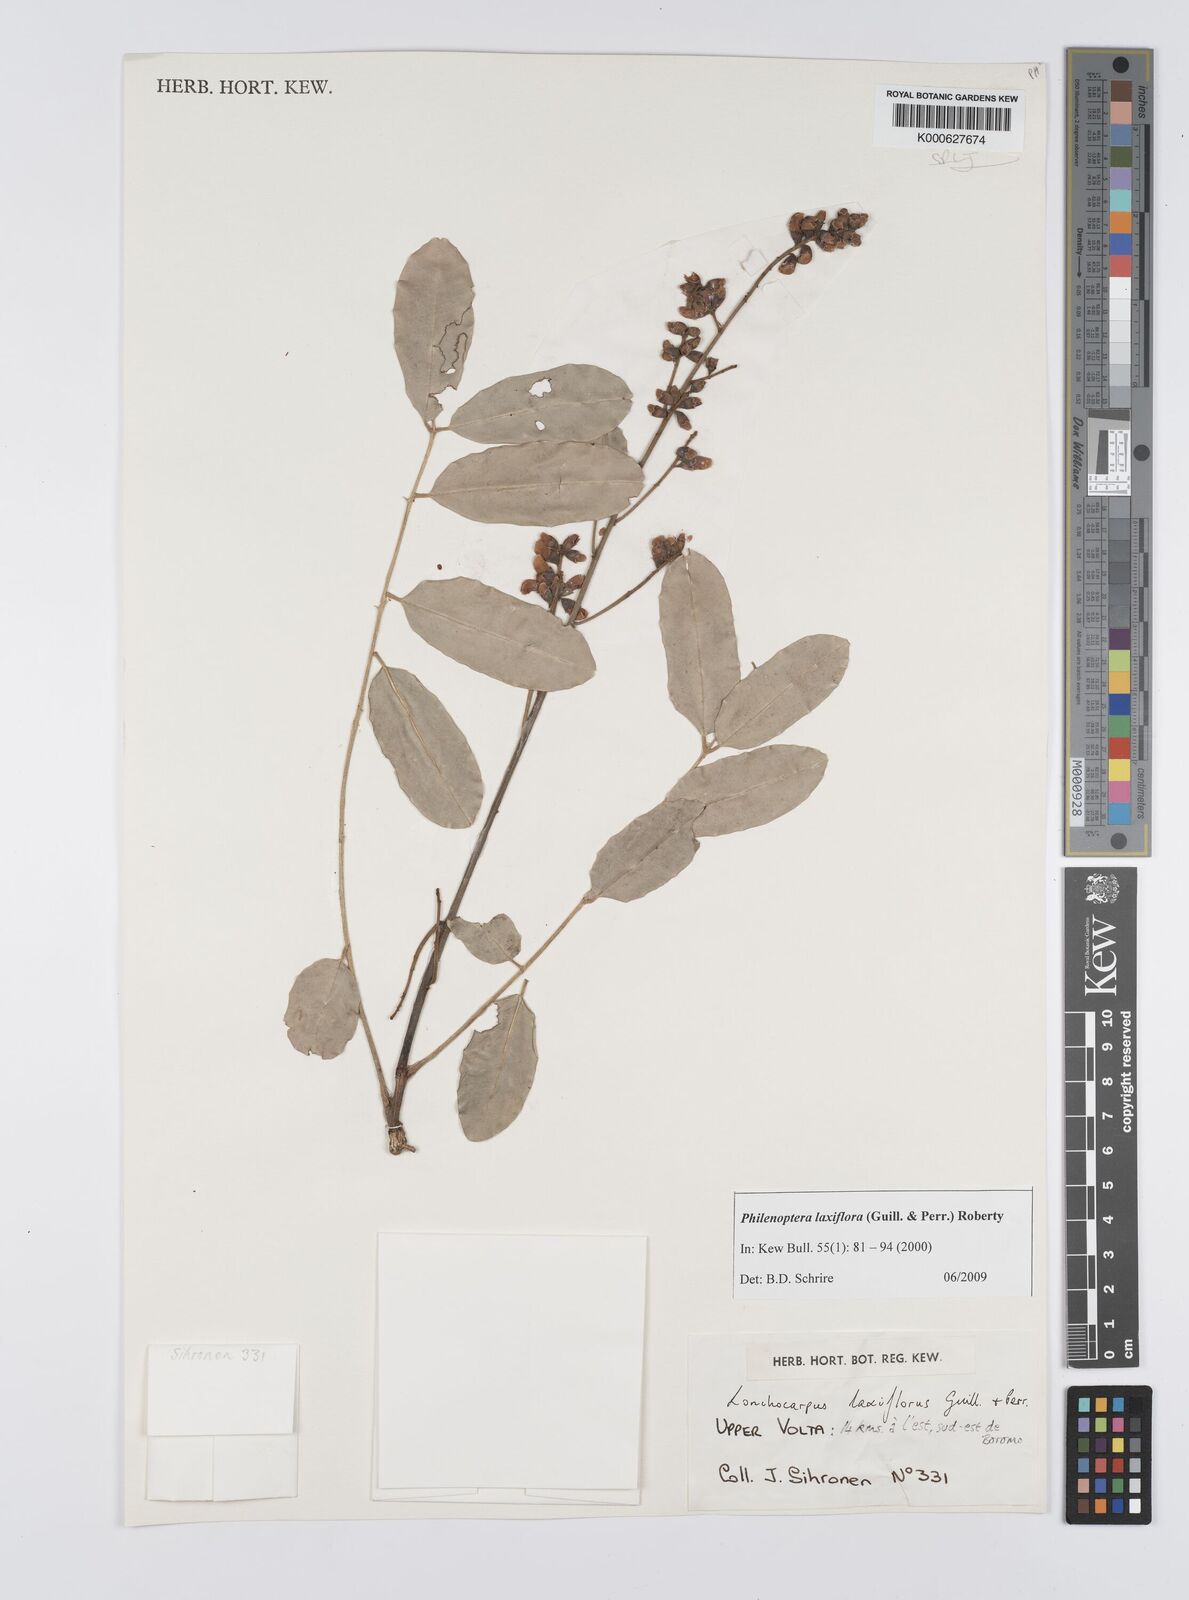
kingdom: Plantae
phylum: Tracheophyta
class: Magnoliopsida
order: Fabales
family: Fabaceae
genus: Philenoptera
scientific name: Philenoptera laxiflora
